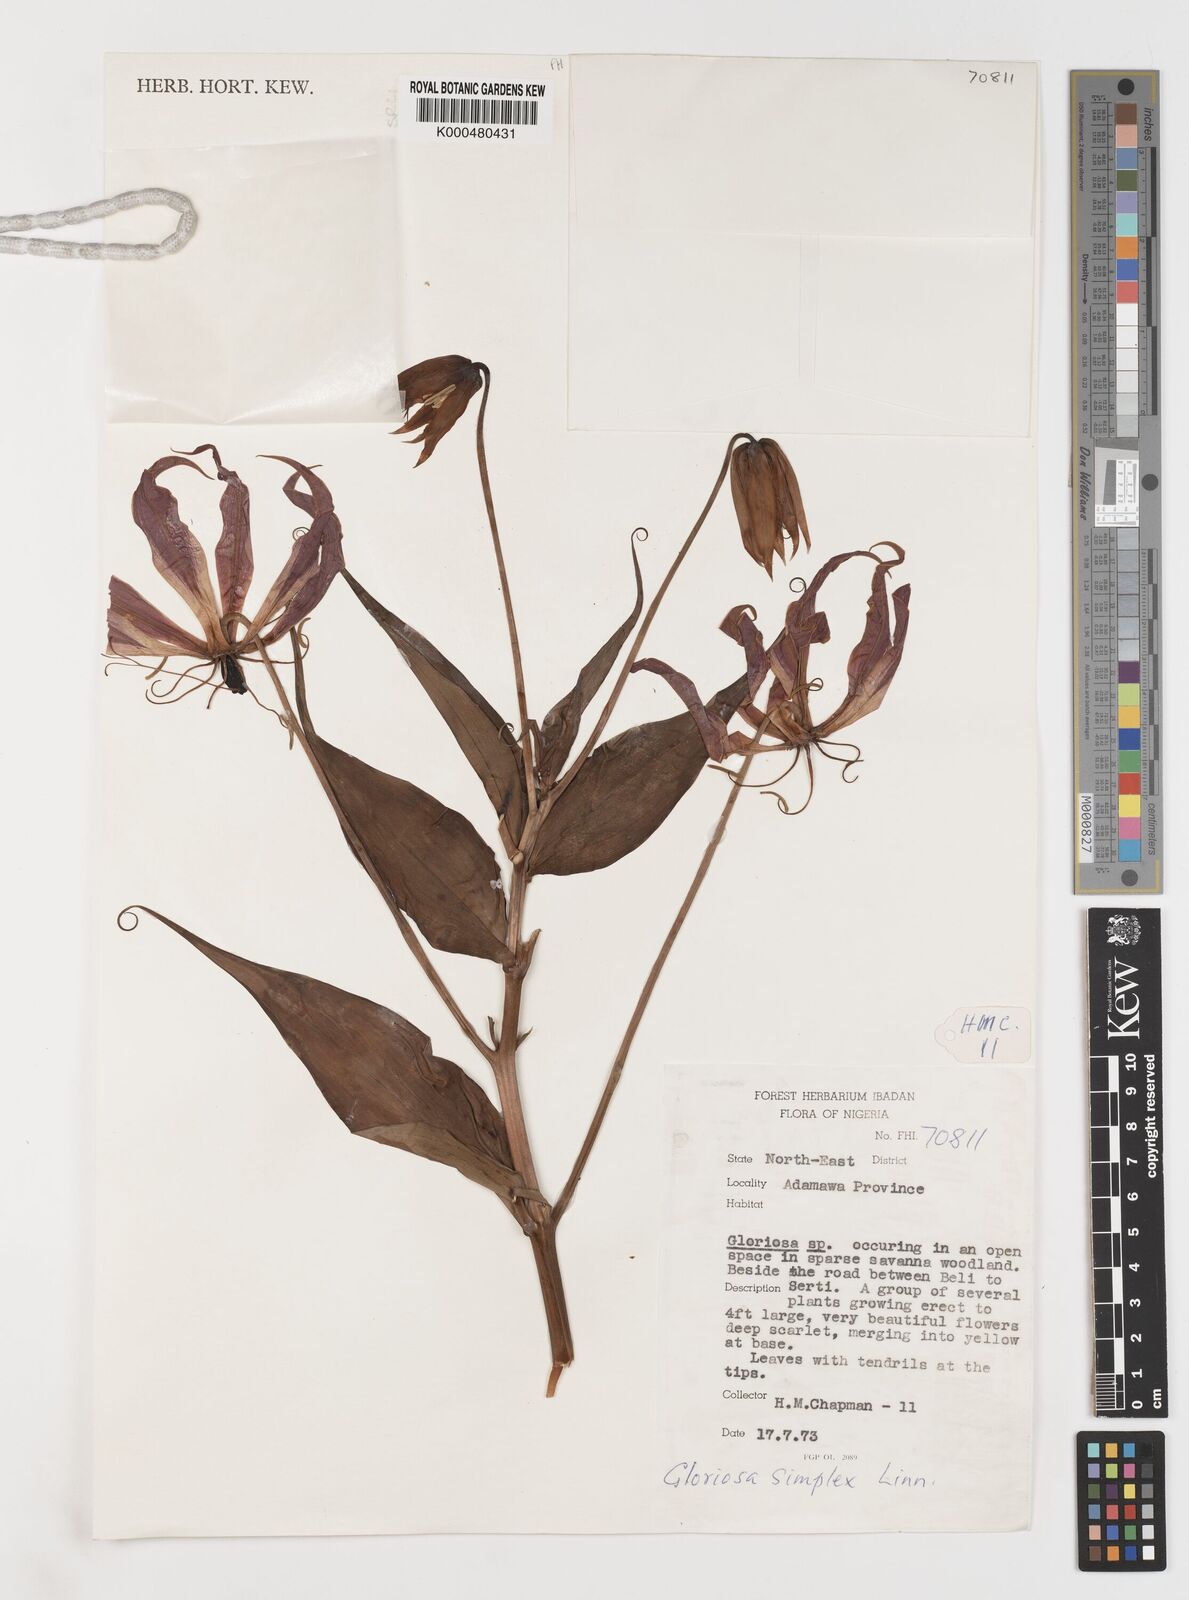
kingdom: Plantae
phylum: Tracheophyta
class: Liliopsida
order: Liliales
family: Colchicaceae
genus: Gloriosa
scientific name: Gloriosa simplex
